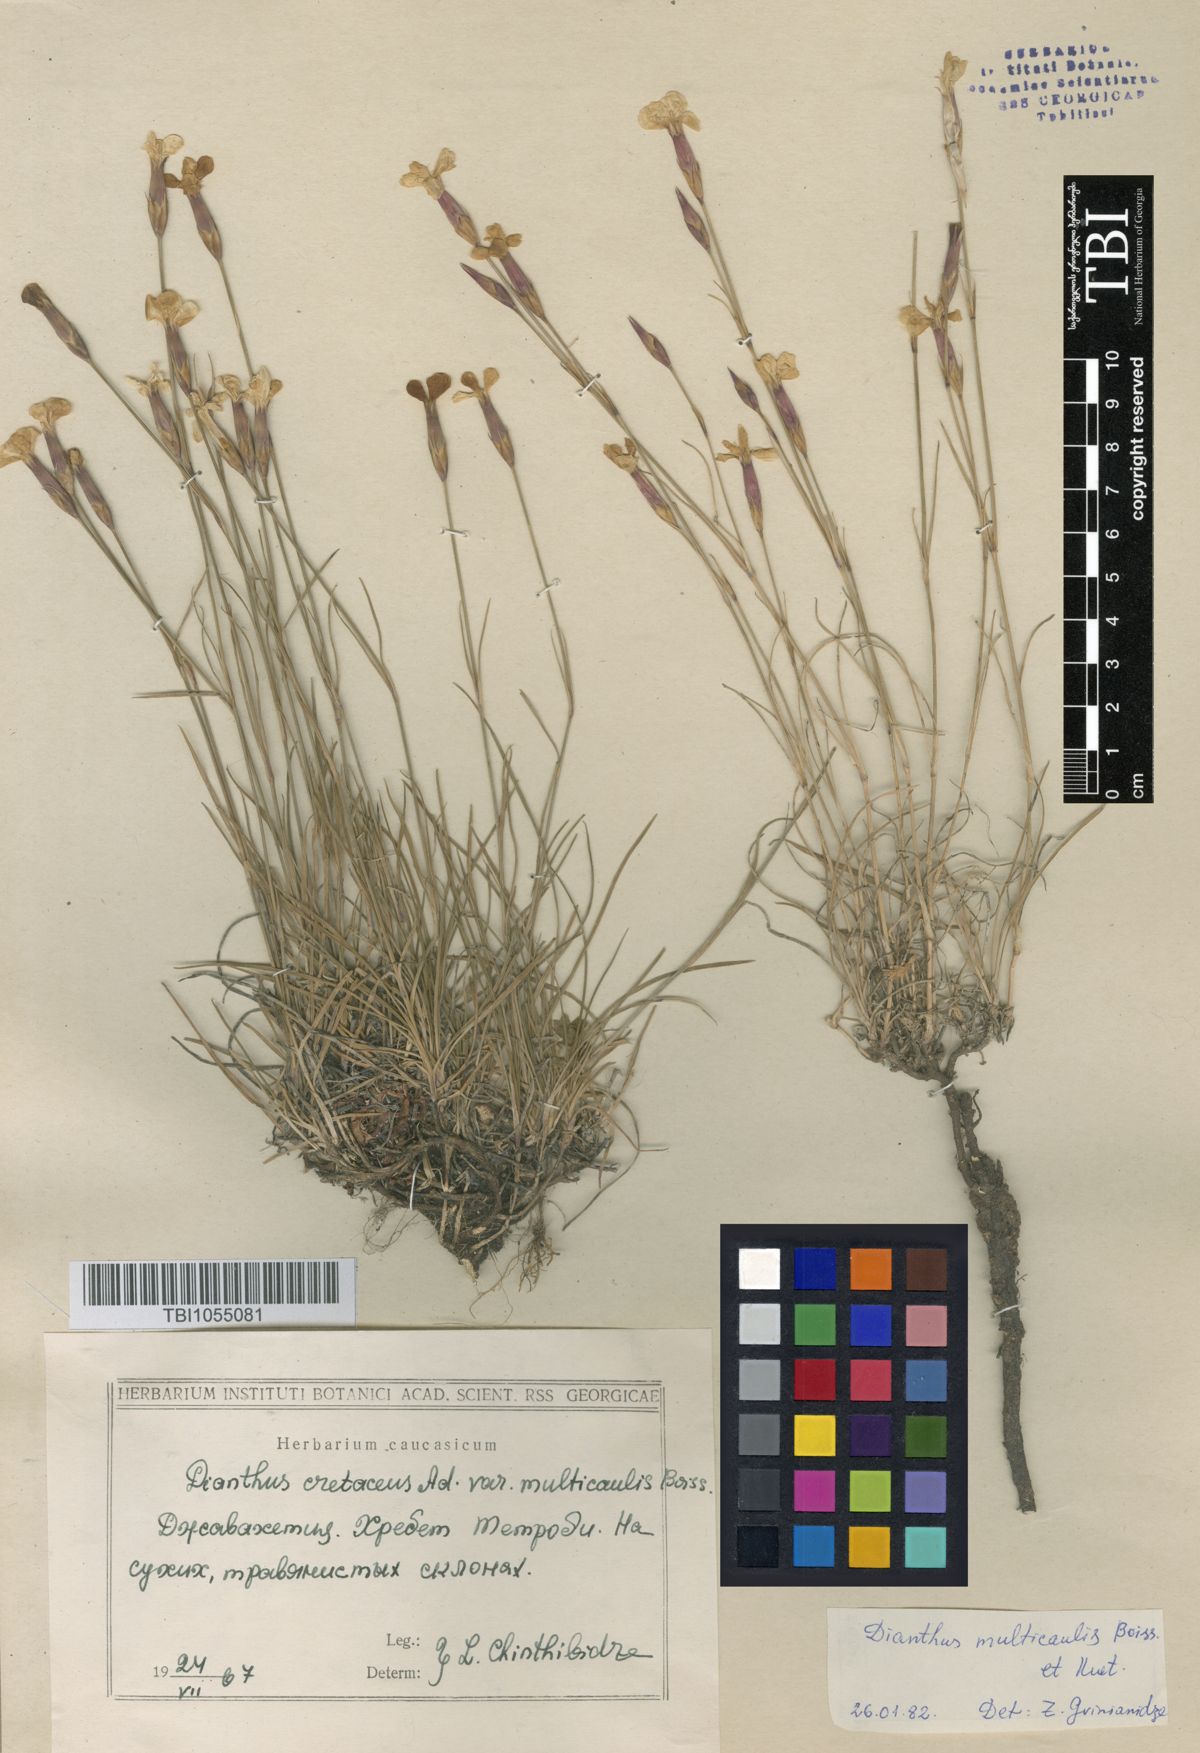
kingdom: Plantae
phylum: Tracheophyta
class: Magnoliopsida
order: Caryophyllales
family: Caryophyllaceae
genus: Dianthus
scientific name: Dianthus cretaceus
